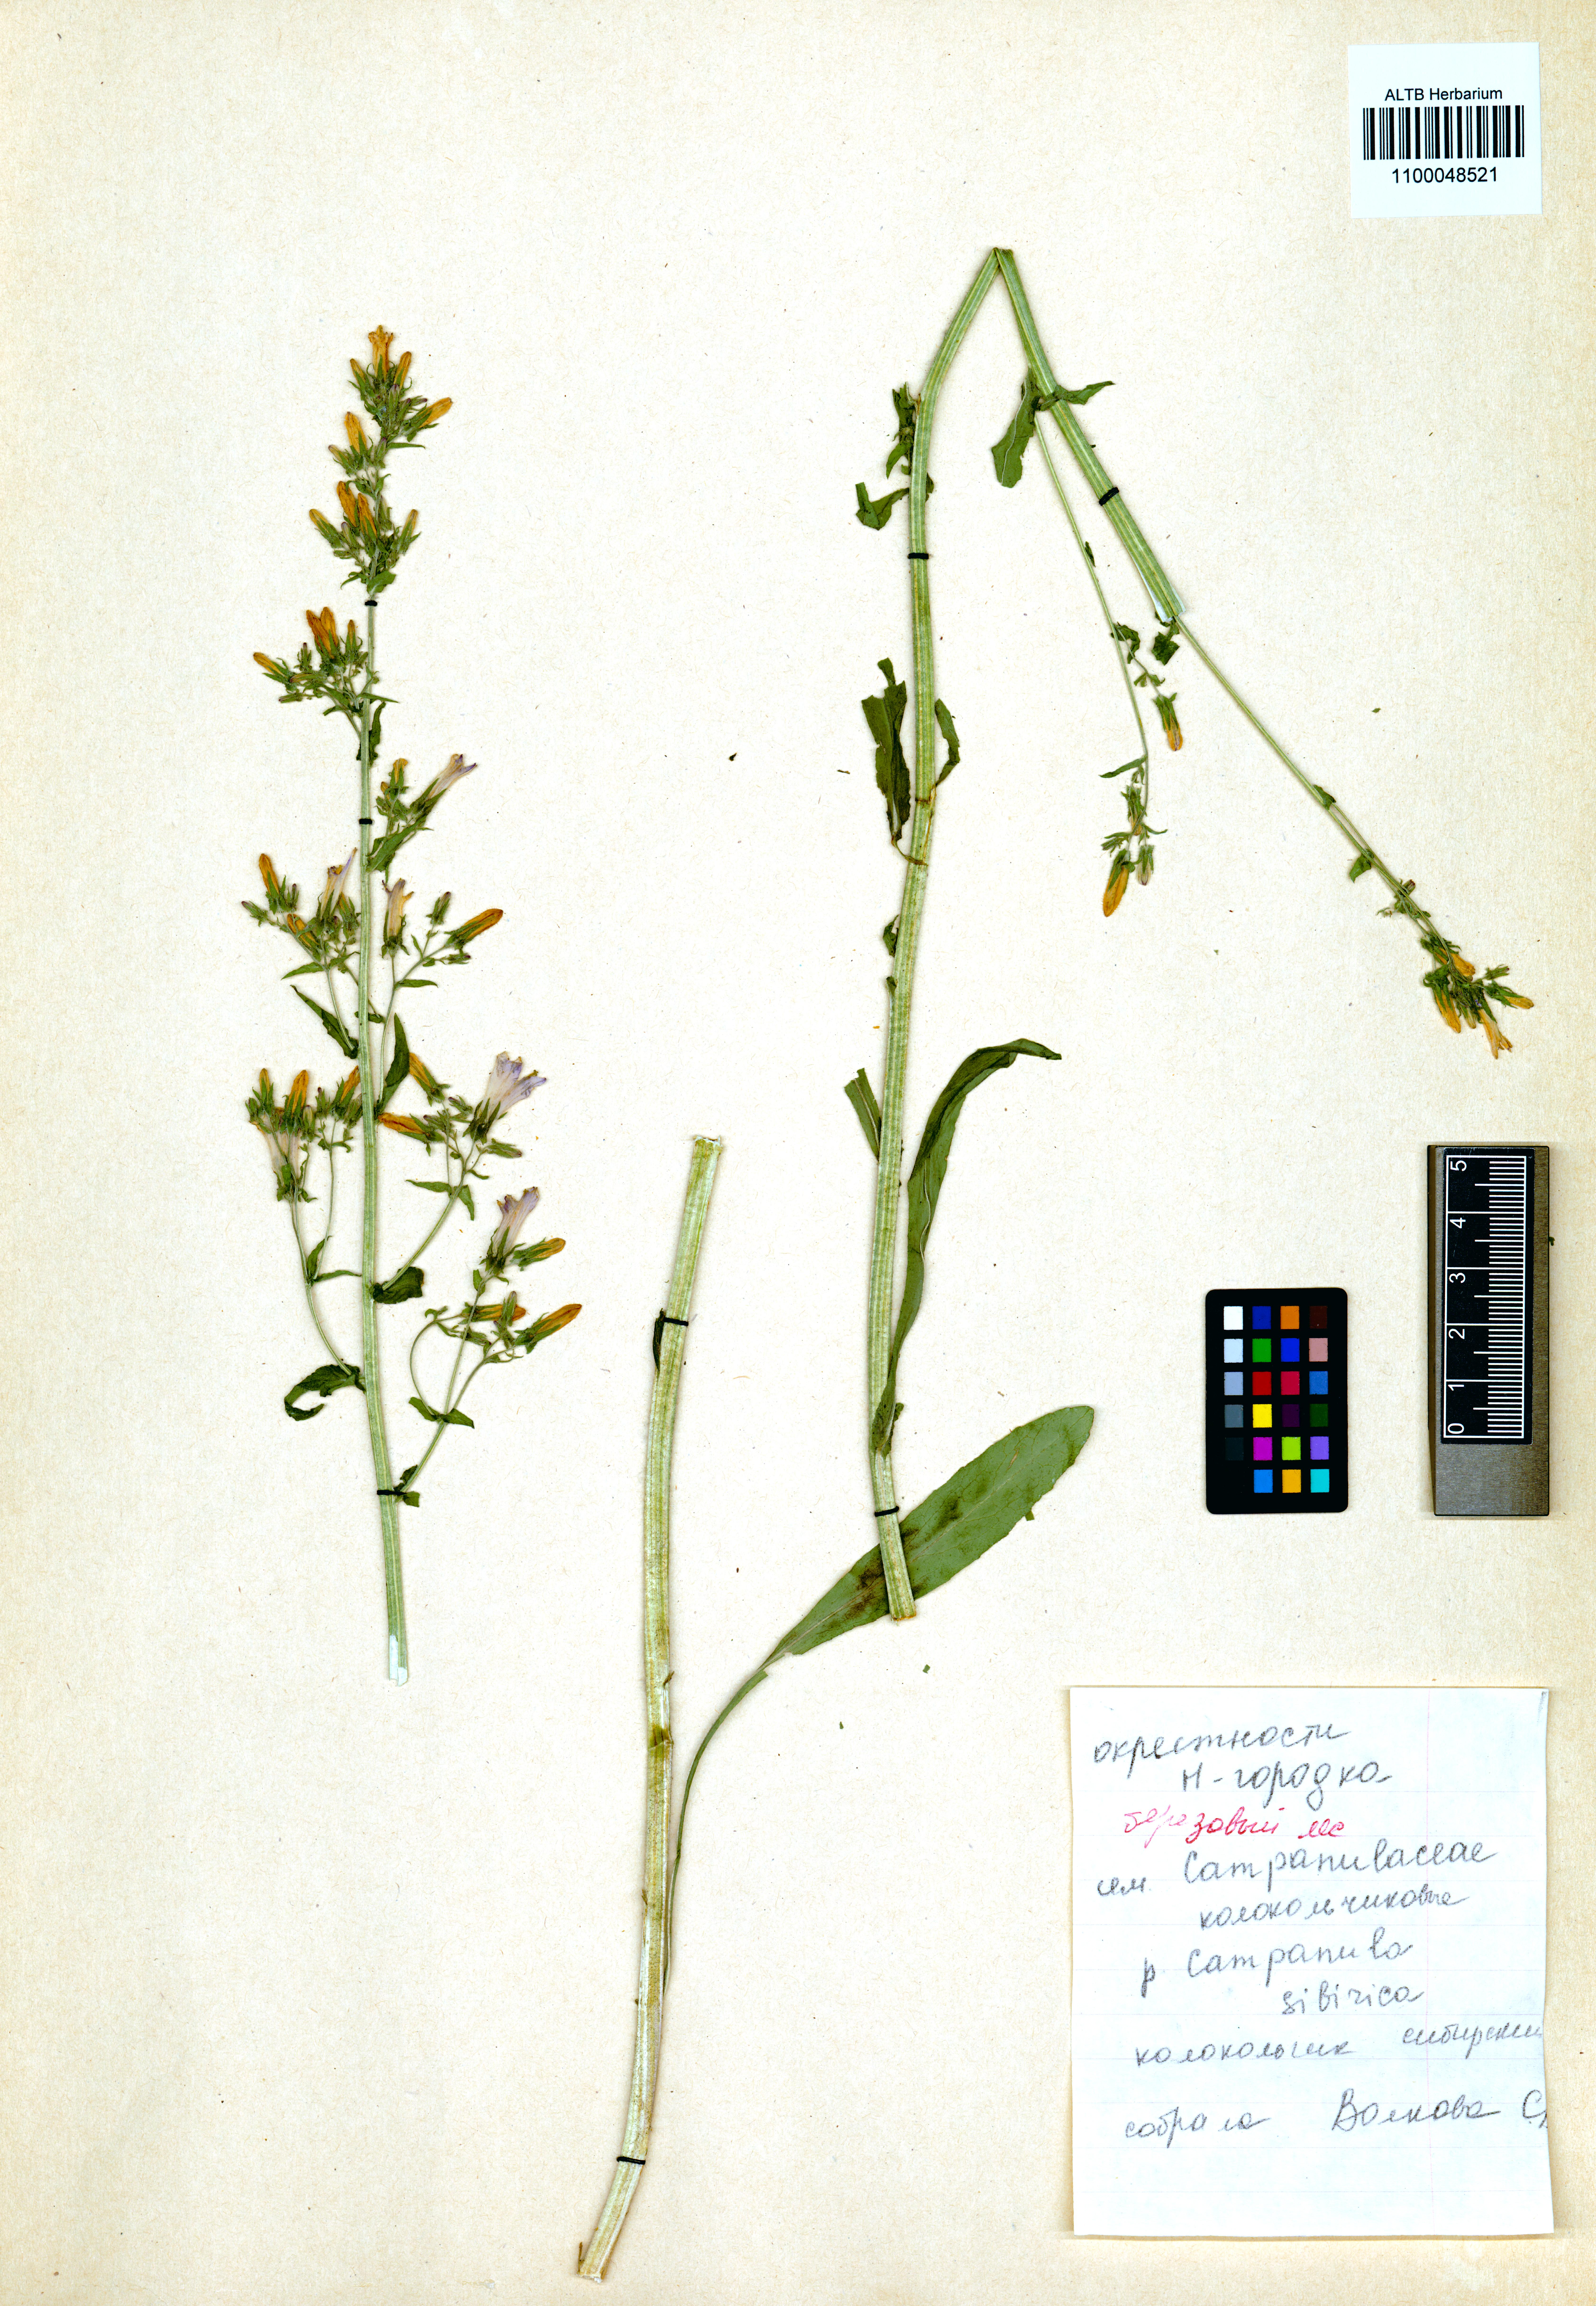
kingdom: Plantae
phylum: Tracheophyta
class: Magnoliopsida
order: Asterales
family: Campanulaceae
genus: Campanula
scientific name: Campanula sibirica
